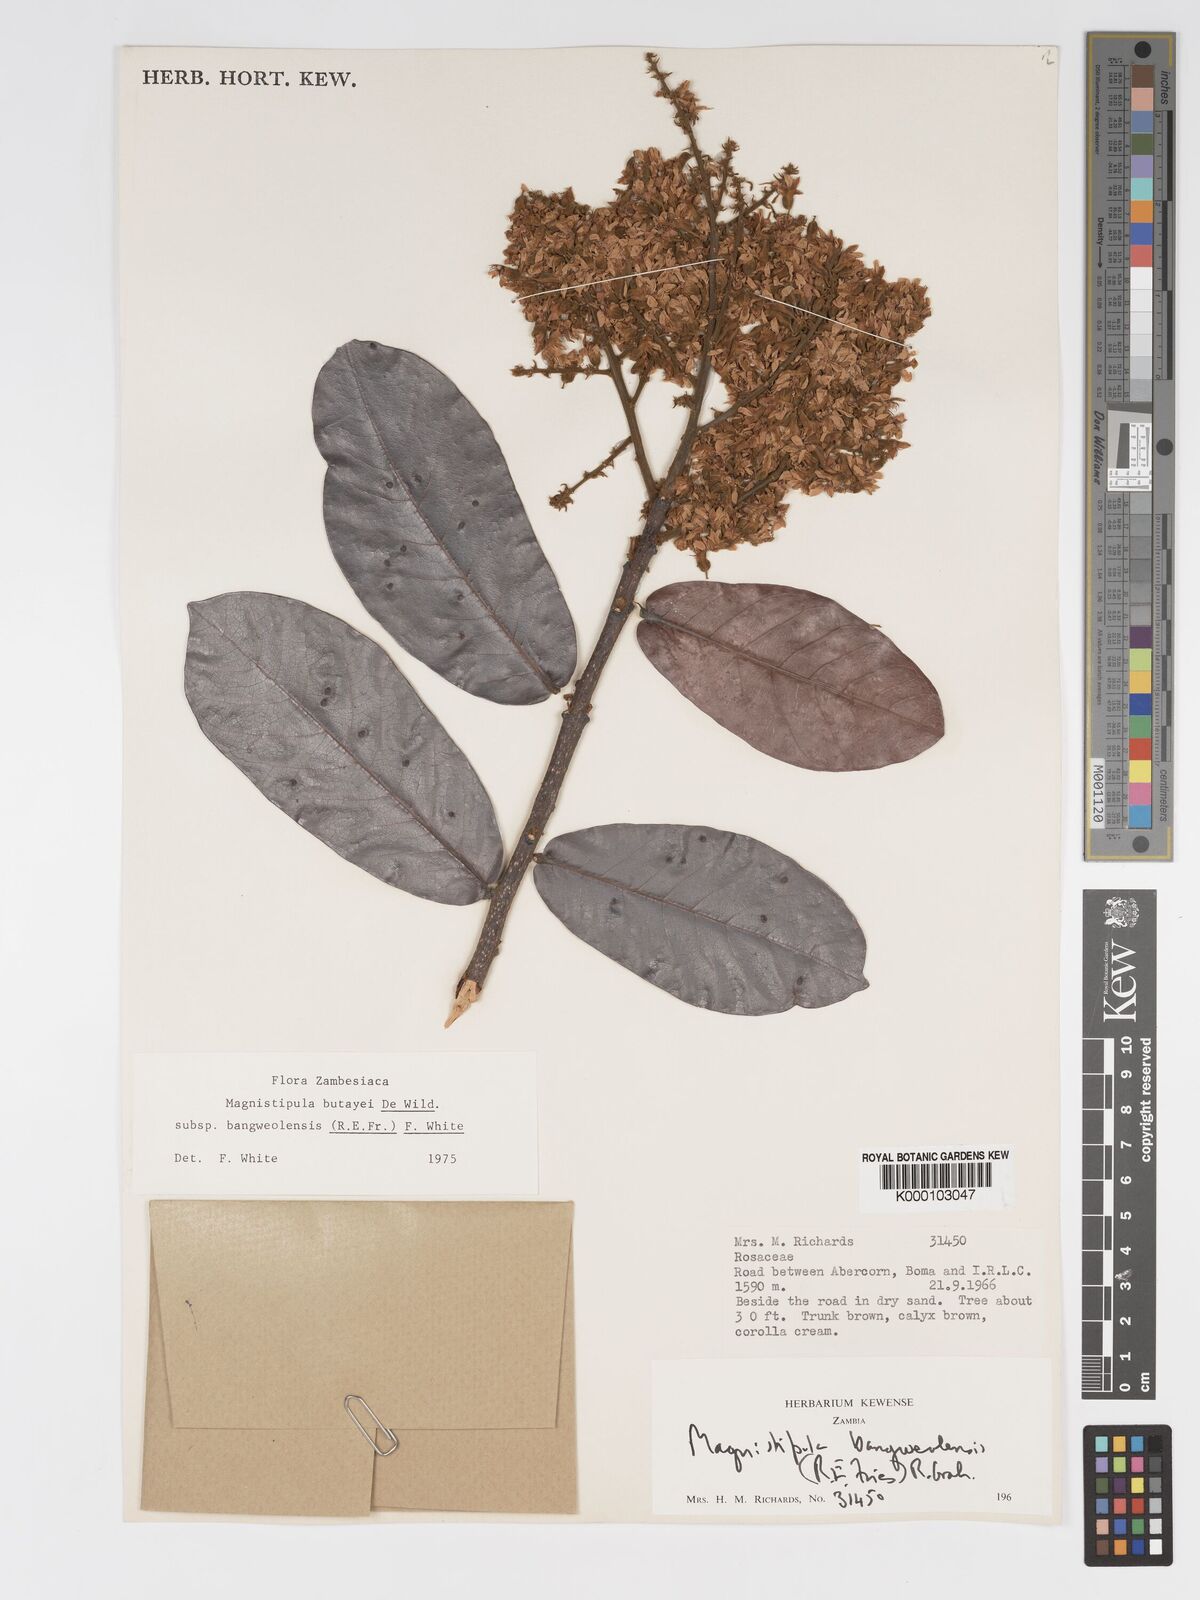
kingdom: Plantae
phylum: Tracheophyta
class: Magnoliopsida
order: Malpighiales
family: Chrysobalanaceae
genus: Magnistipula
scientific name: Magnistipula butayei
